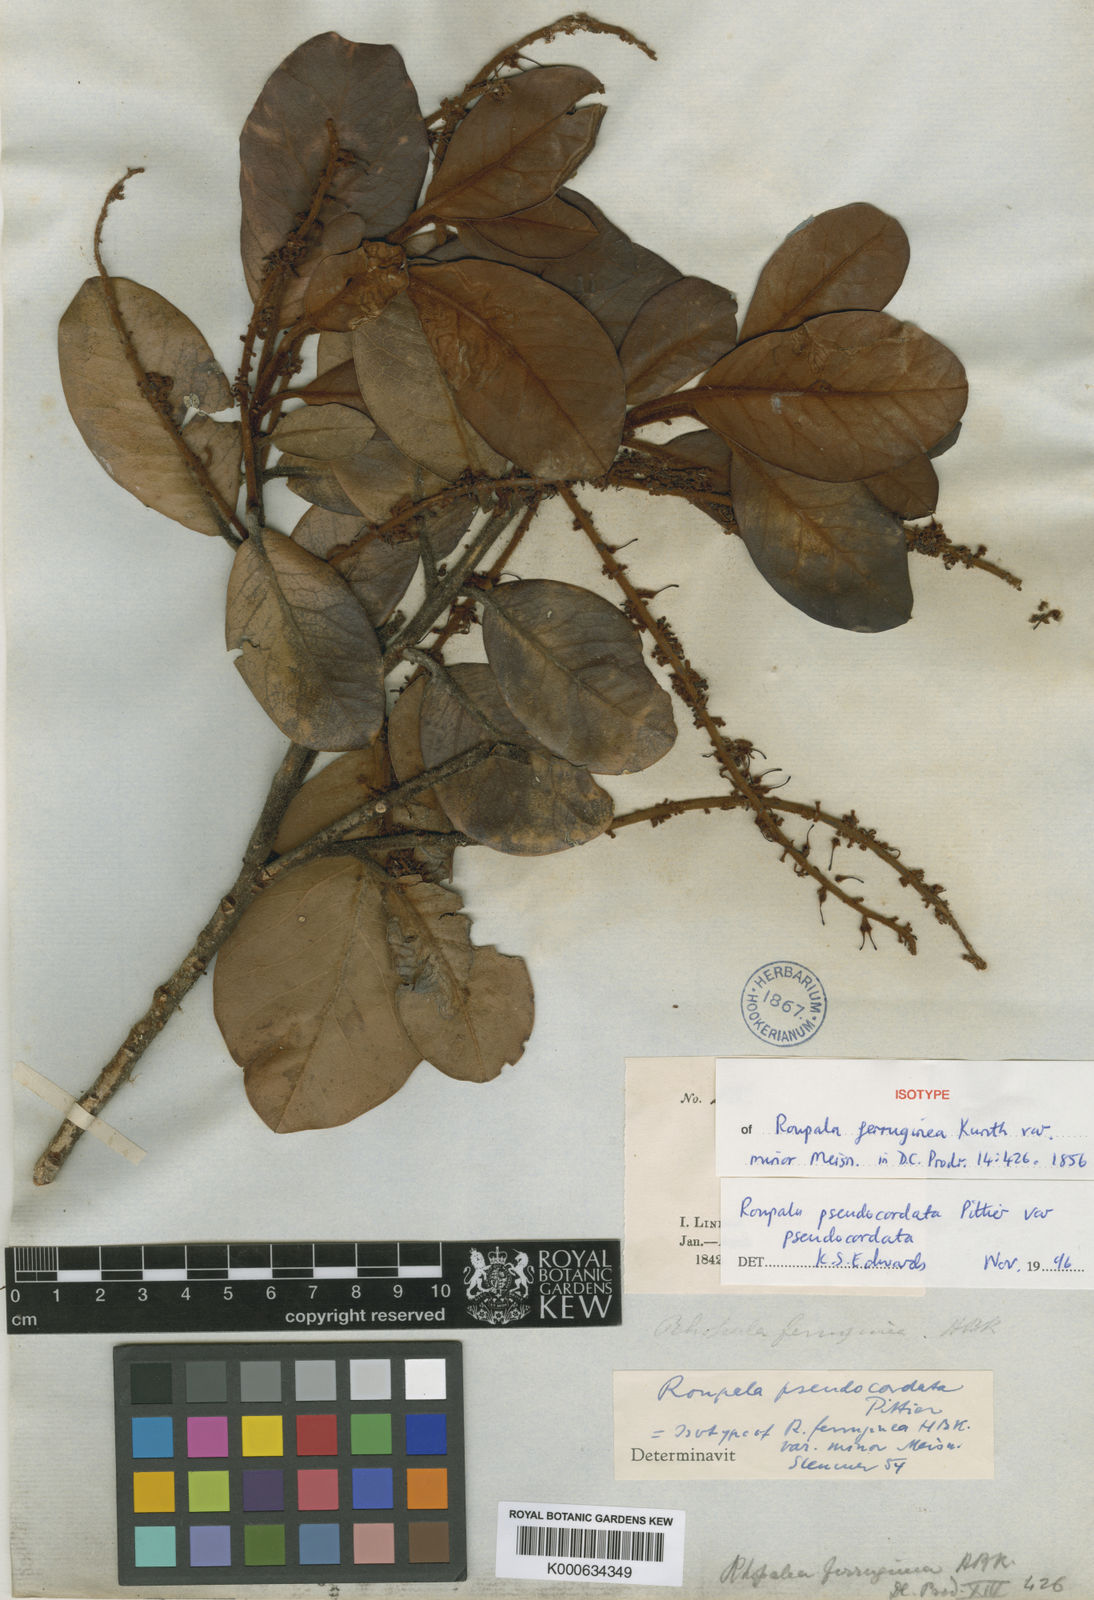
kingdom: Plantae
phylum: Tracheophyta
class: Magnoliopsida
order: Proteales
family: Proteaceae
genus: Roupala
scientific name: Roupala pseudocordata
